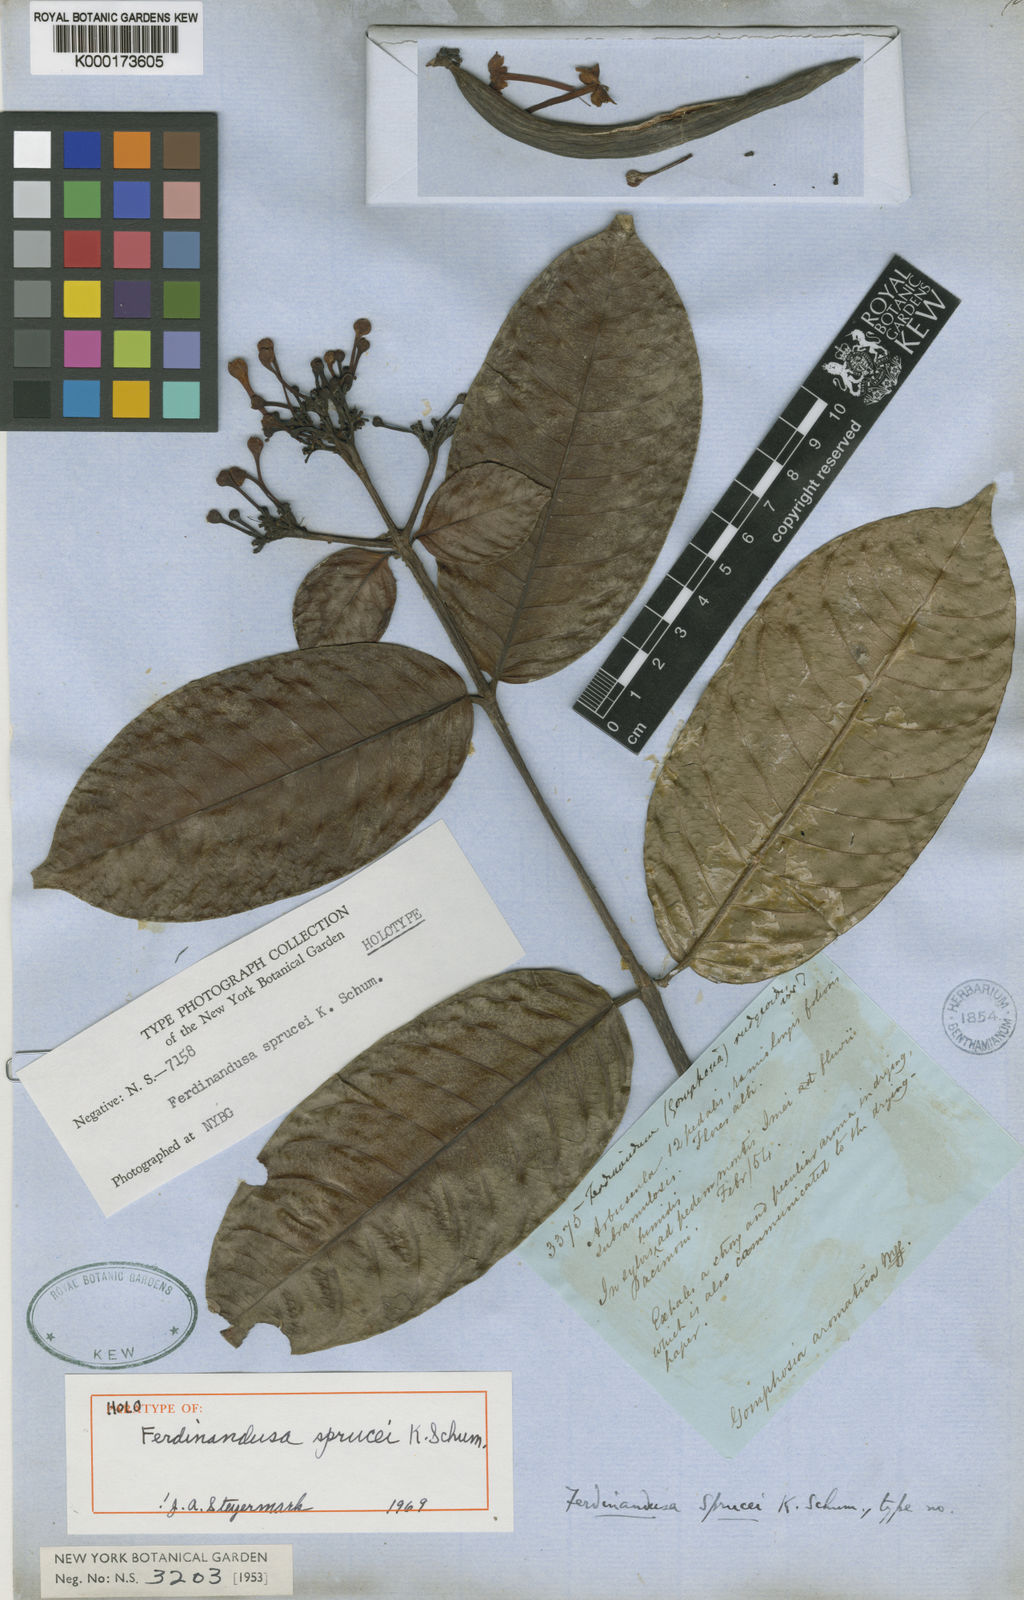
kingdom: Plantae
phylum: Tracheophyta
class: Magnoliopsida
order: Gentianales
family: Rubiaceae
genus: Ferdinandusa
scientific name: Ferdinandusa sprucei
